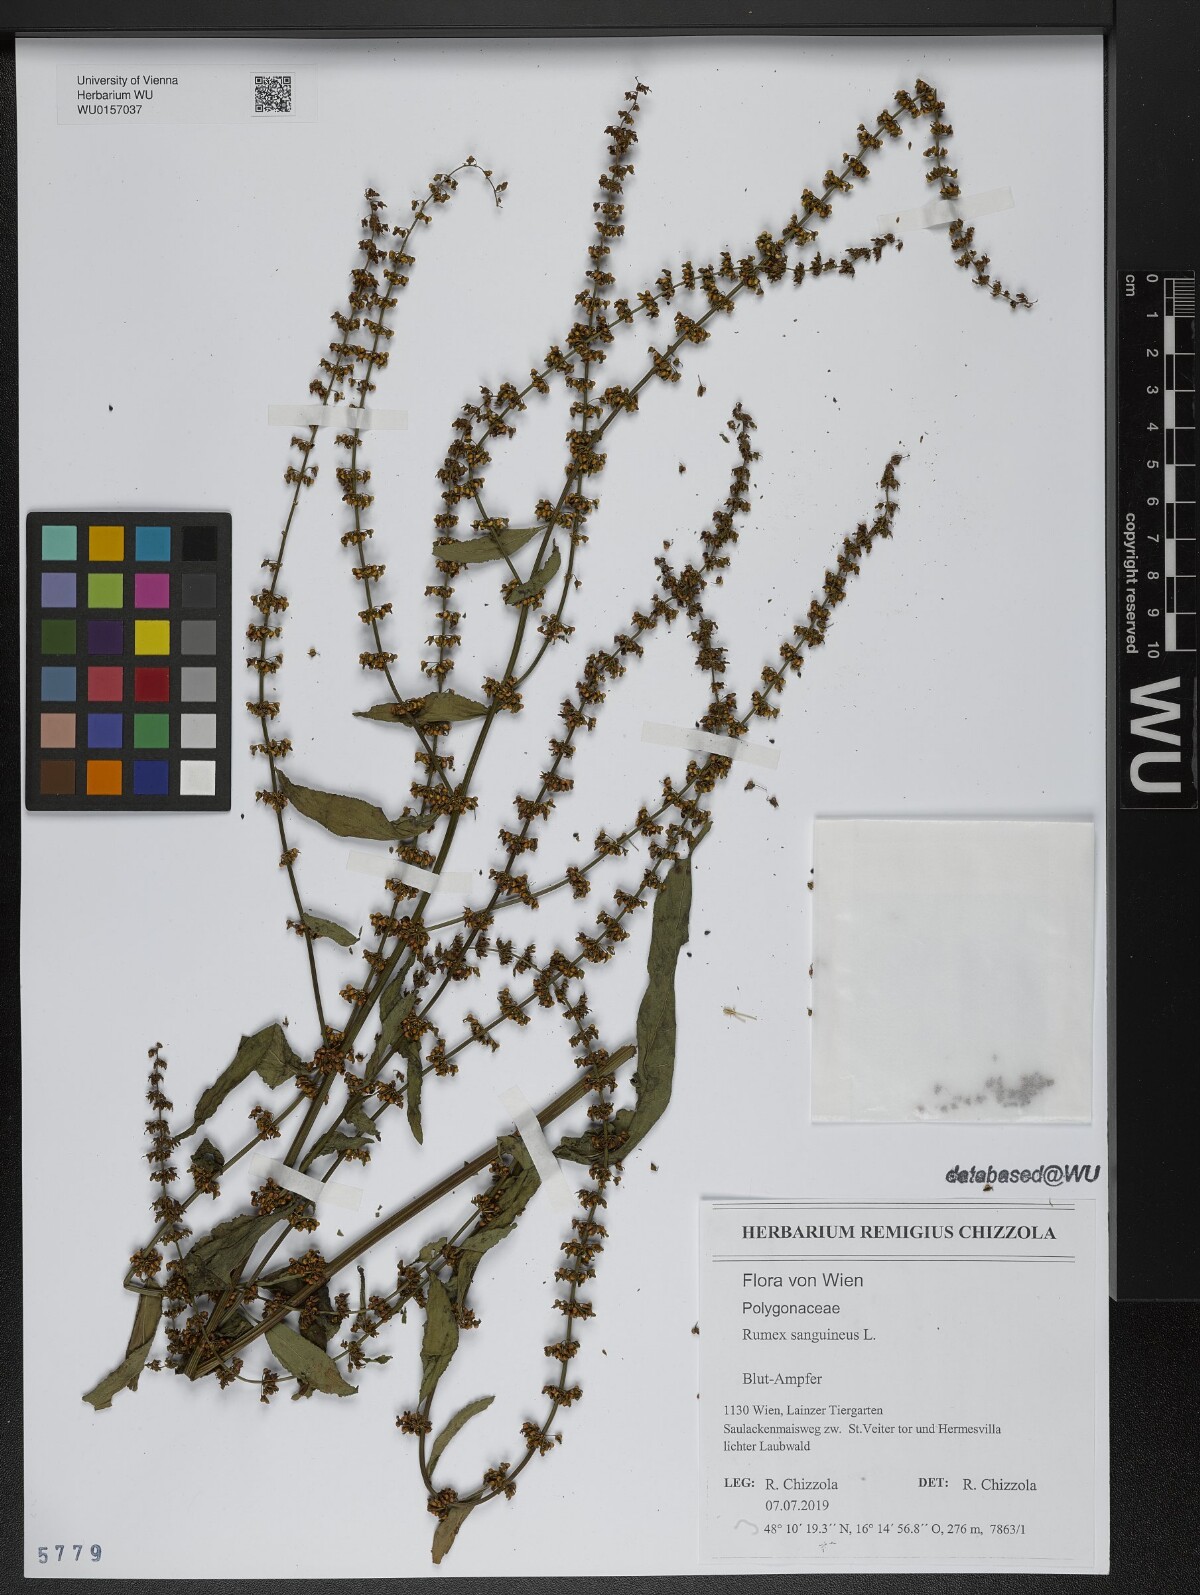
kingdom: Plantae
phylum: Tracheophyta
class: Magnoliopsida
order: Caryophyllales
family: Polygonaceae
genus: Rumex
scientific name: Rumex sanguineus
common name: Wood dock
